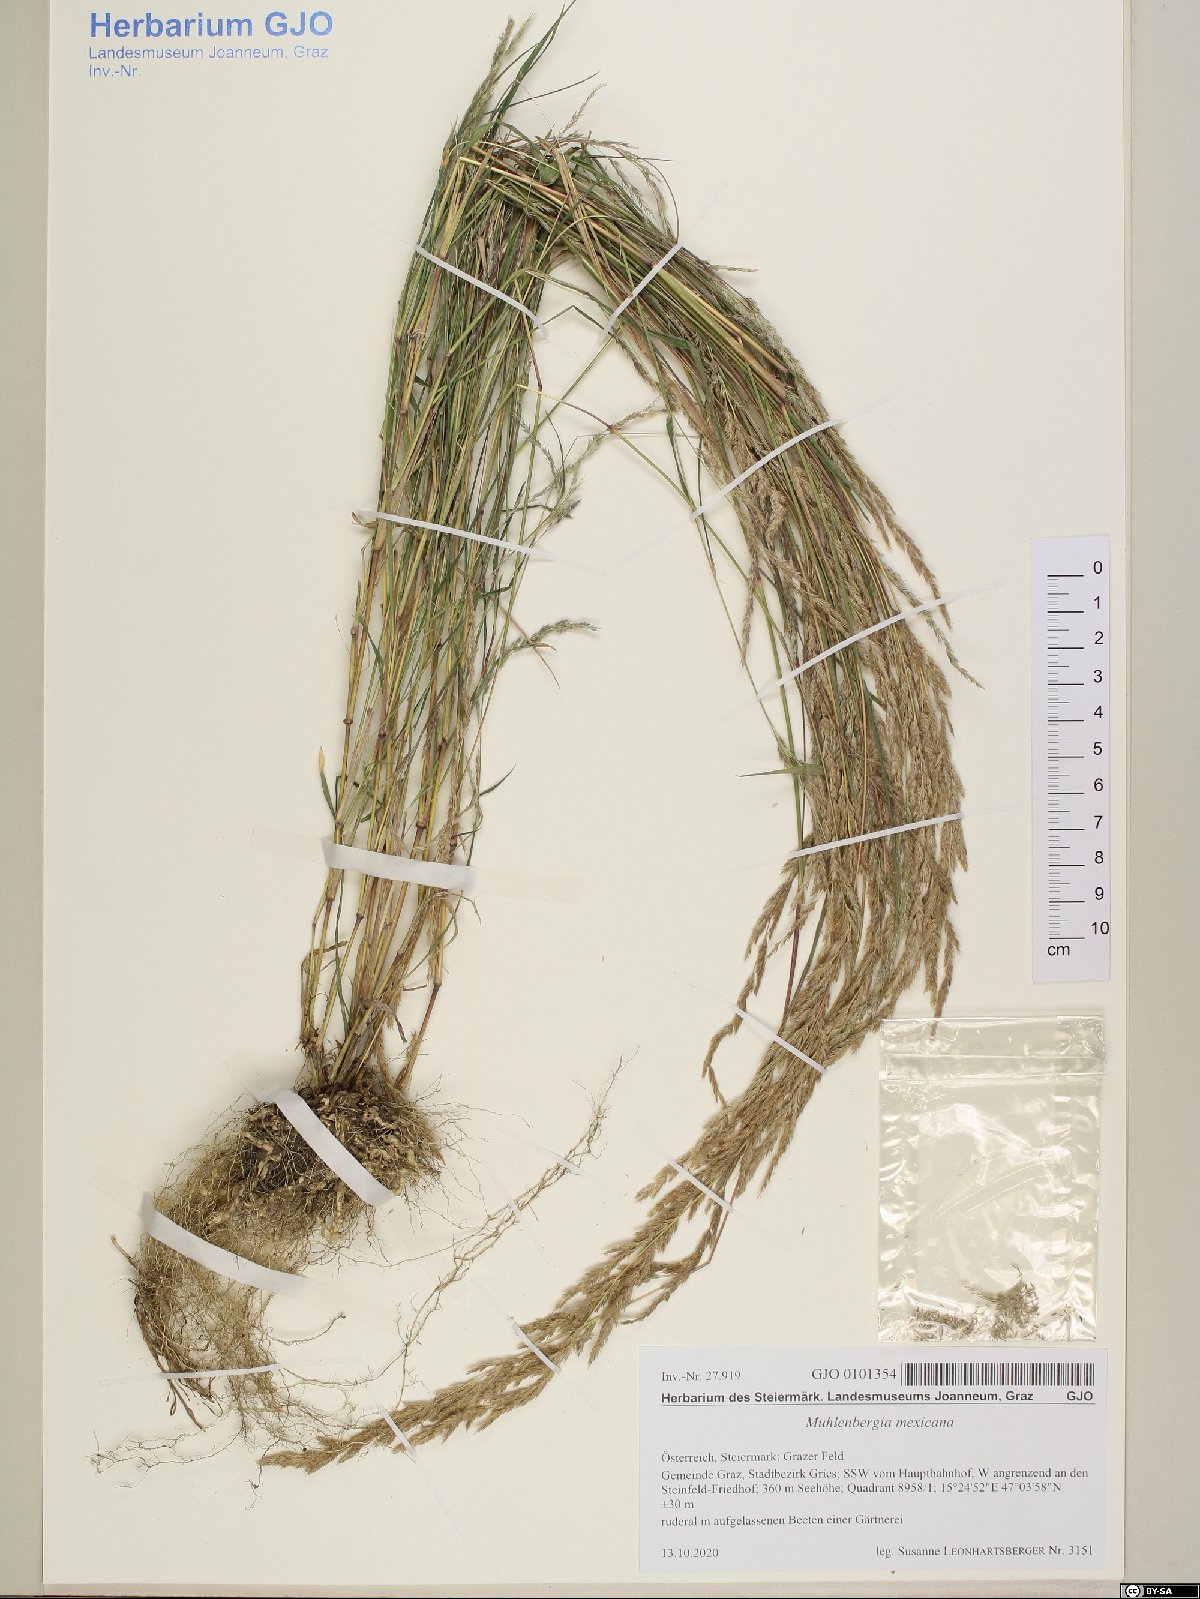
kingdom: Plantae
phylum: Tracheophyta
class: Liliopsida
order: Poales
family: Poaceae
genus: Muhlenbergia
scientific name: Muhlenbergia mexicana
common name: Mexican muhly
